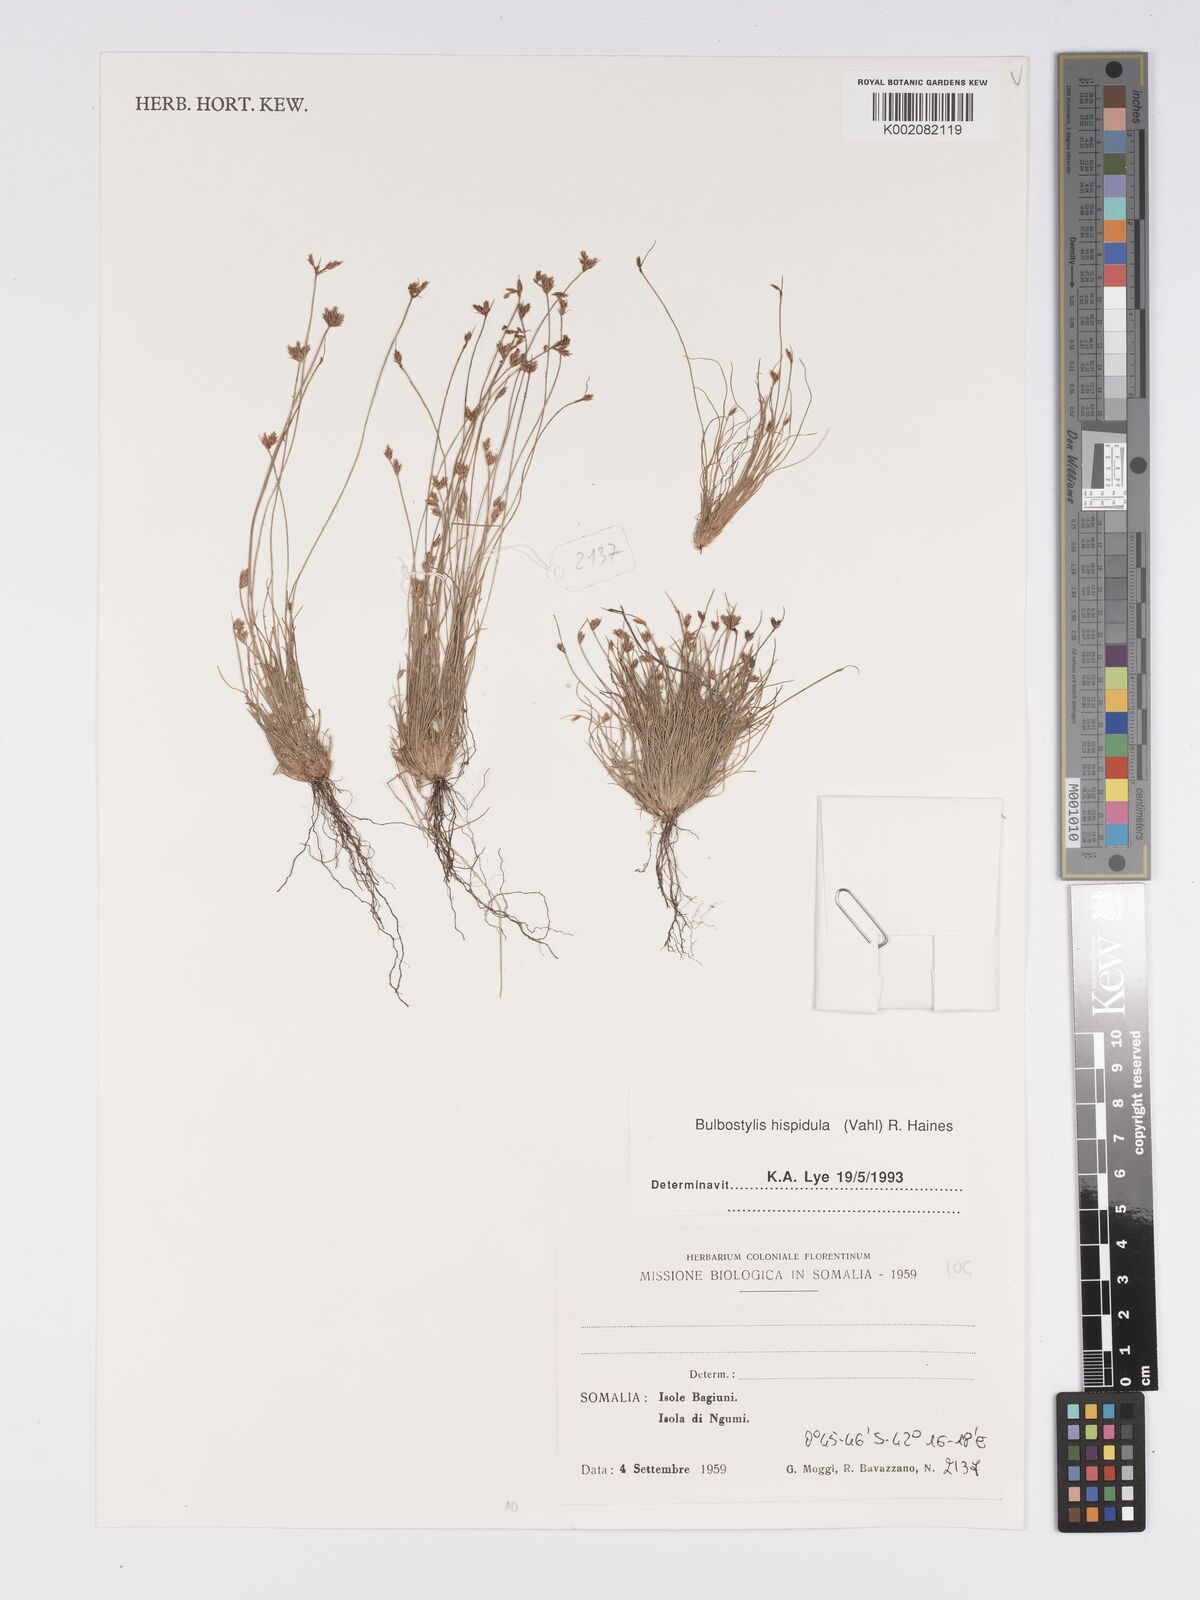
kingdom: Plantae
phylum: Tracheophyta
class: Liliopsida
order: Poales
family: Cyperaceae
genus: Bulbostylis
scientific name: Bulbostylis hispidula
